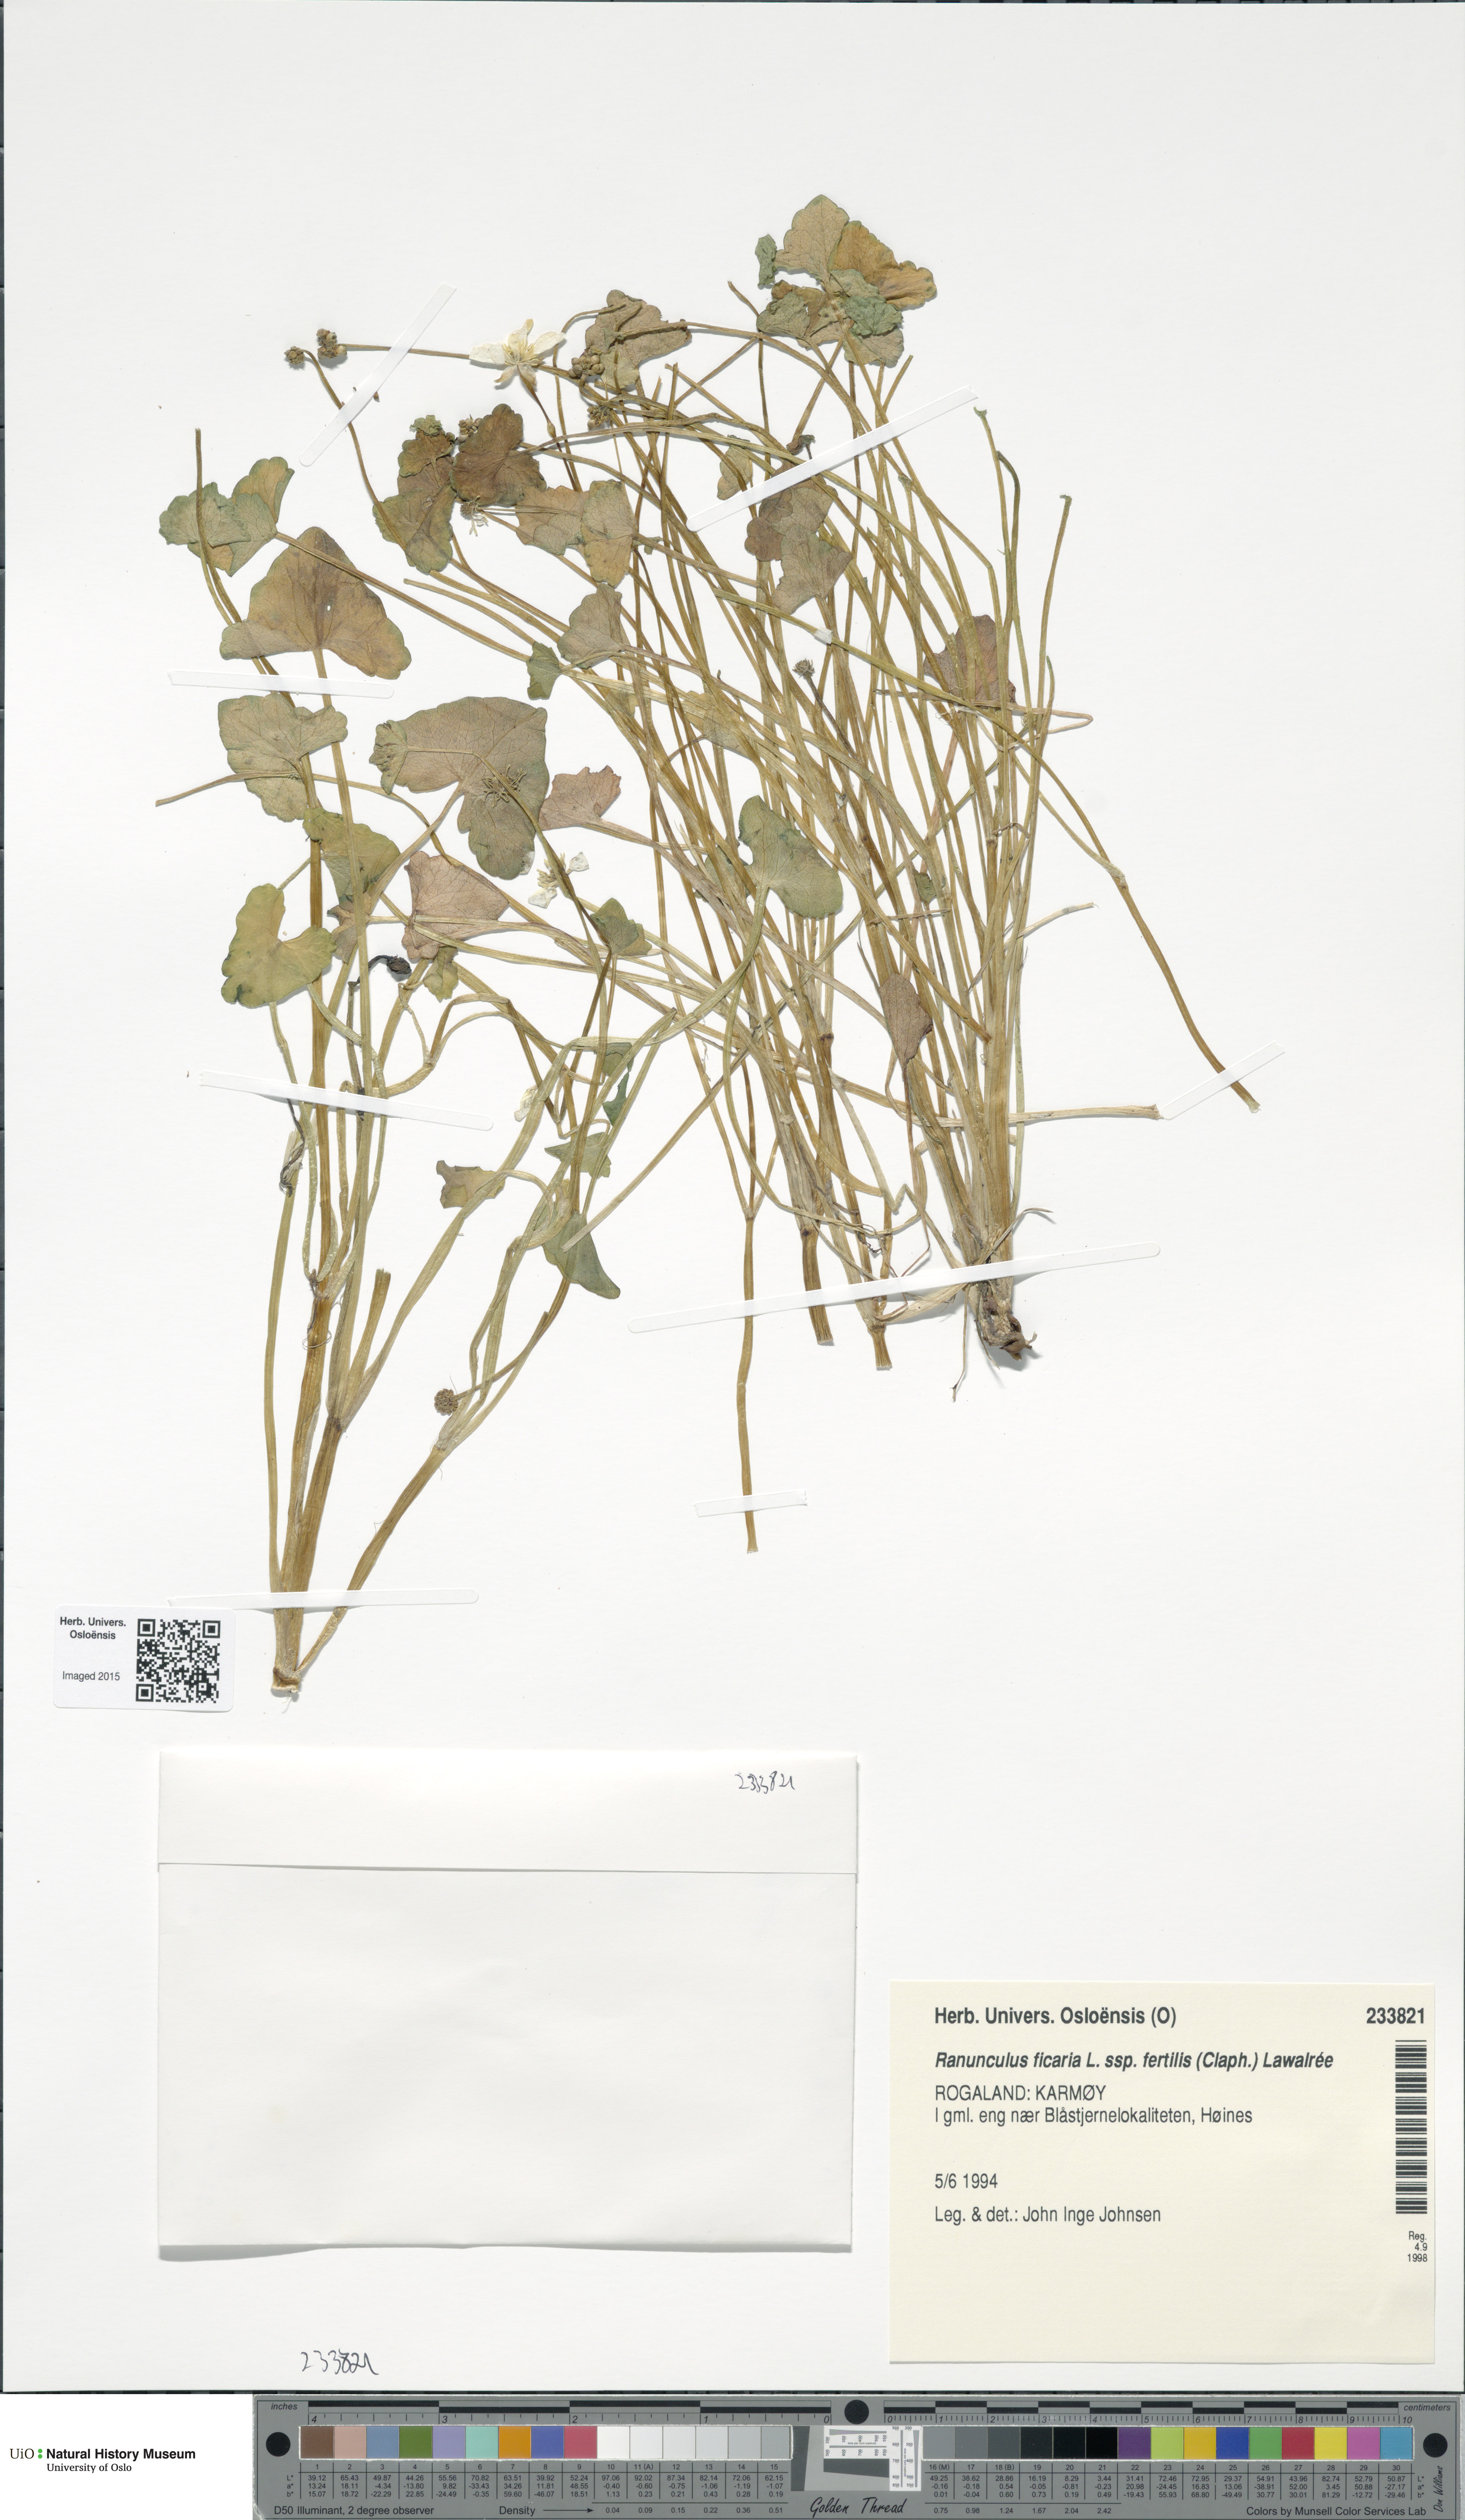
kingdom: Plantae
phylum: Tracheophyta
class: Magnoliopsida
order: Ranunculales
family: Ranunculaceae
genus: Ficaria
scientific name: Ficaria ambigua
